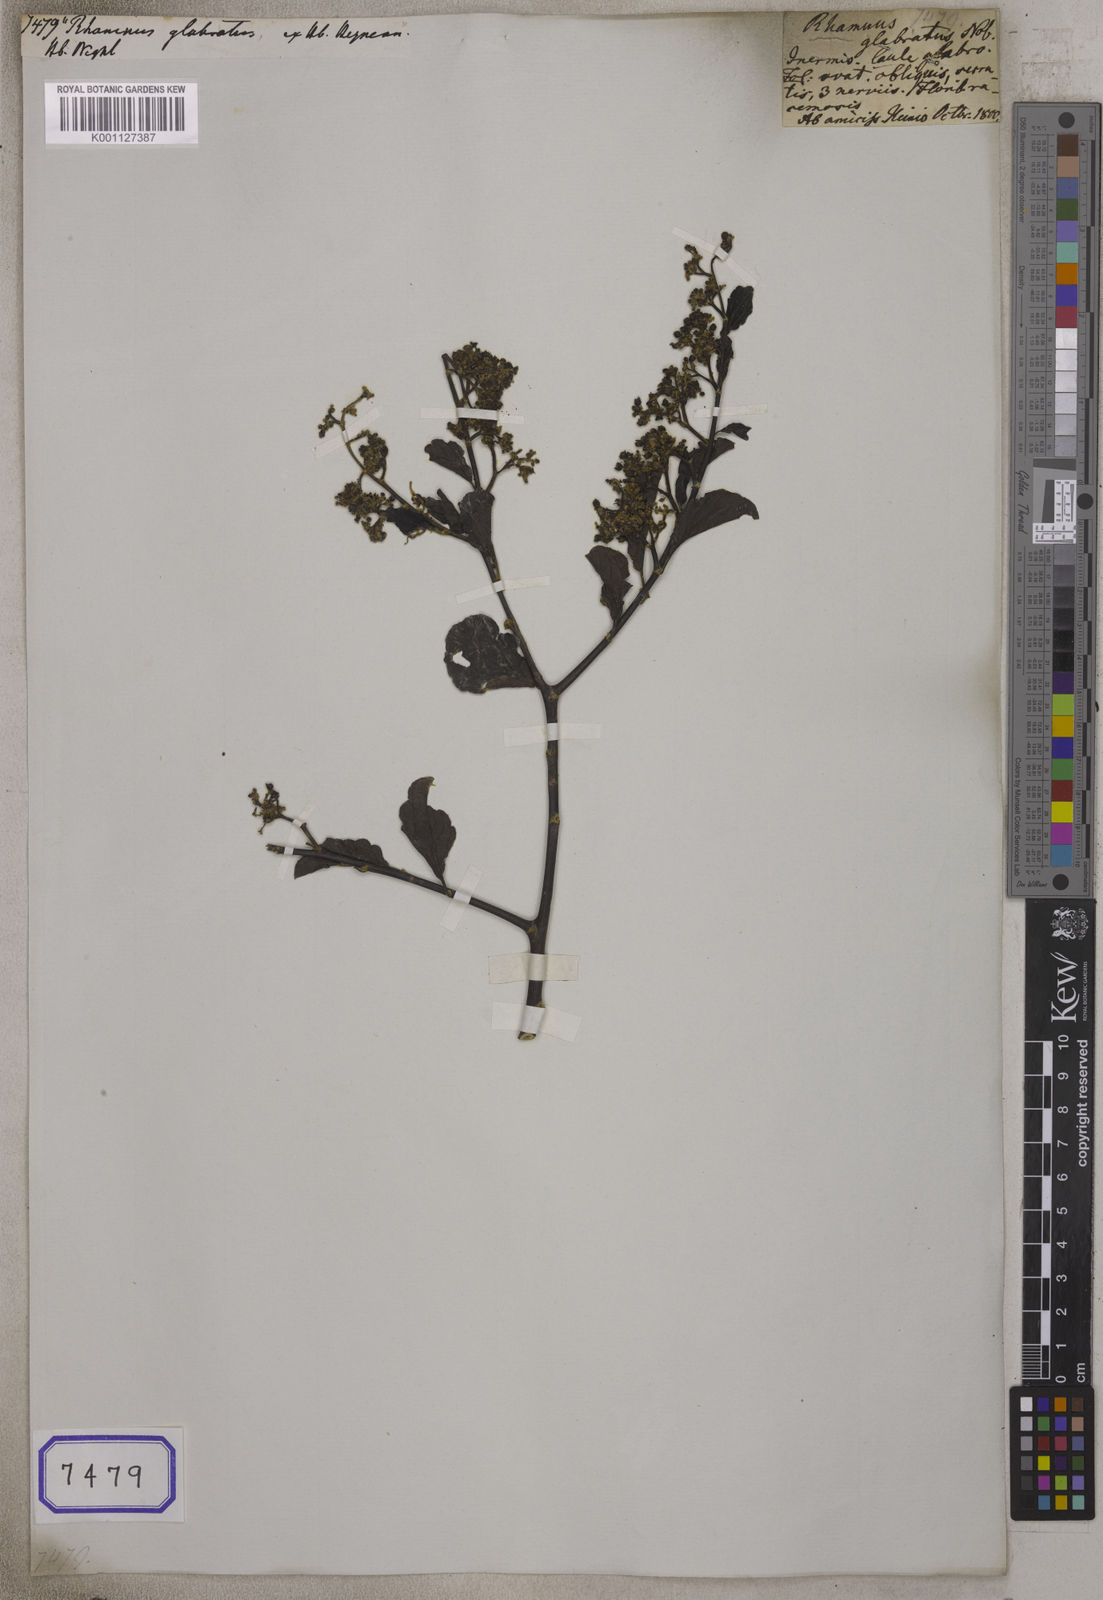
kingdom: Plantae
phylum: Tracheophyta
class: Magnoliopsida
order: Rosales
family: Rhamnaceae
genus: Ziziphus
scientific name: Ziziphus rugosa
